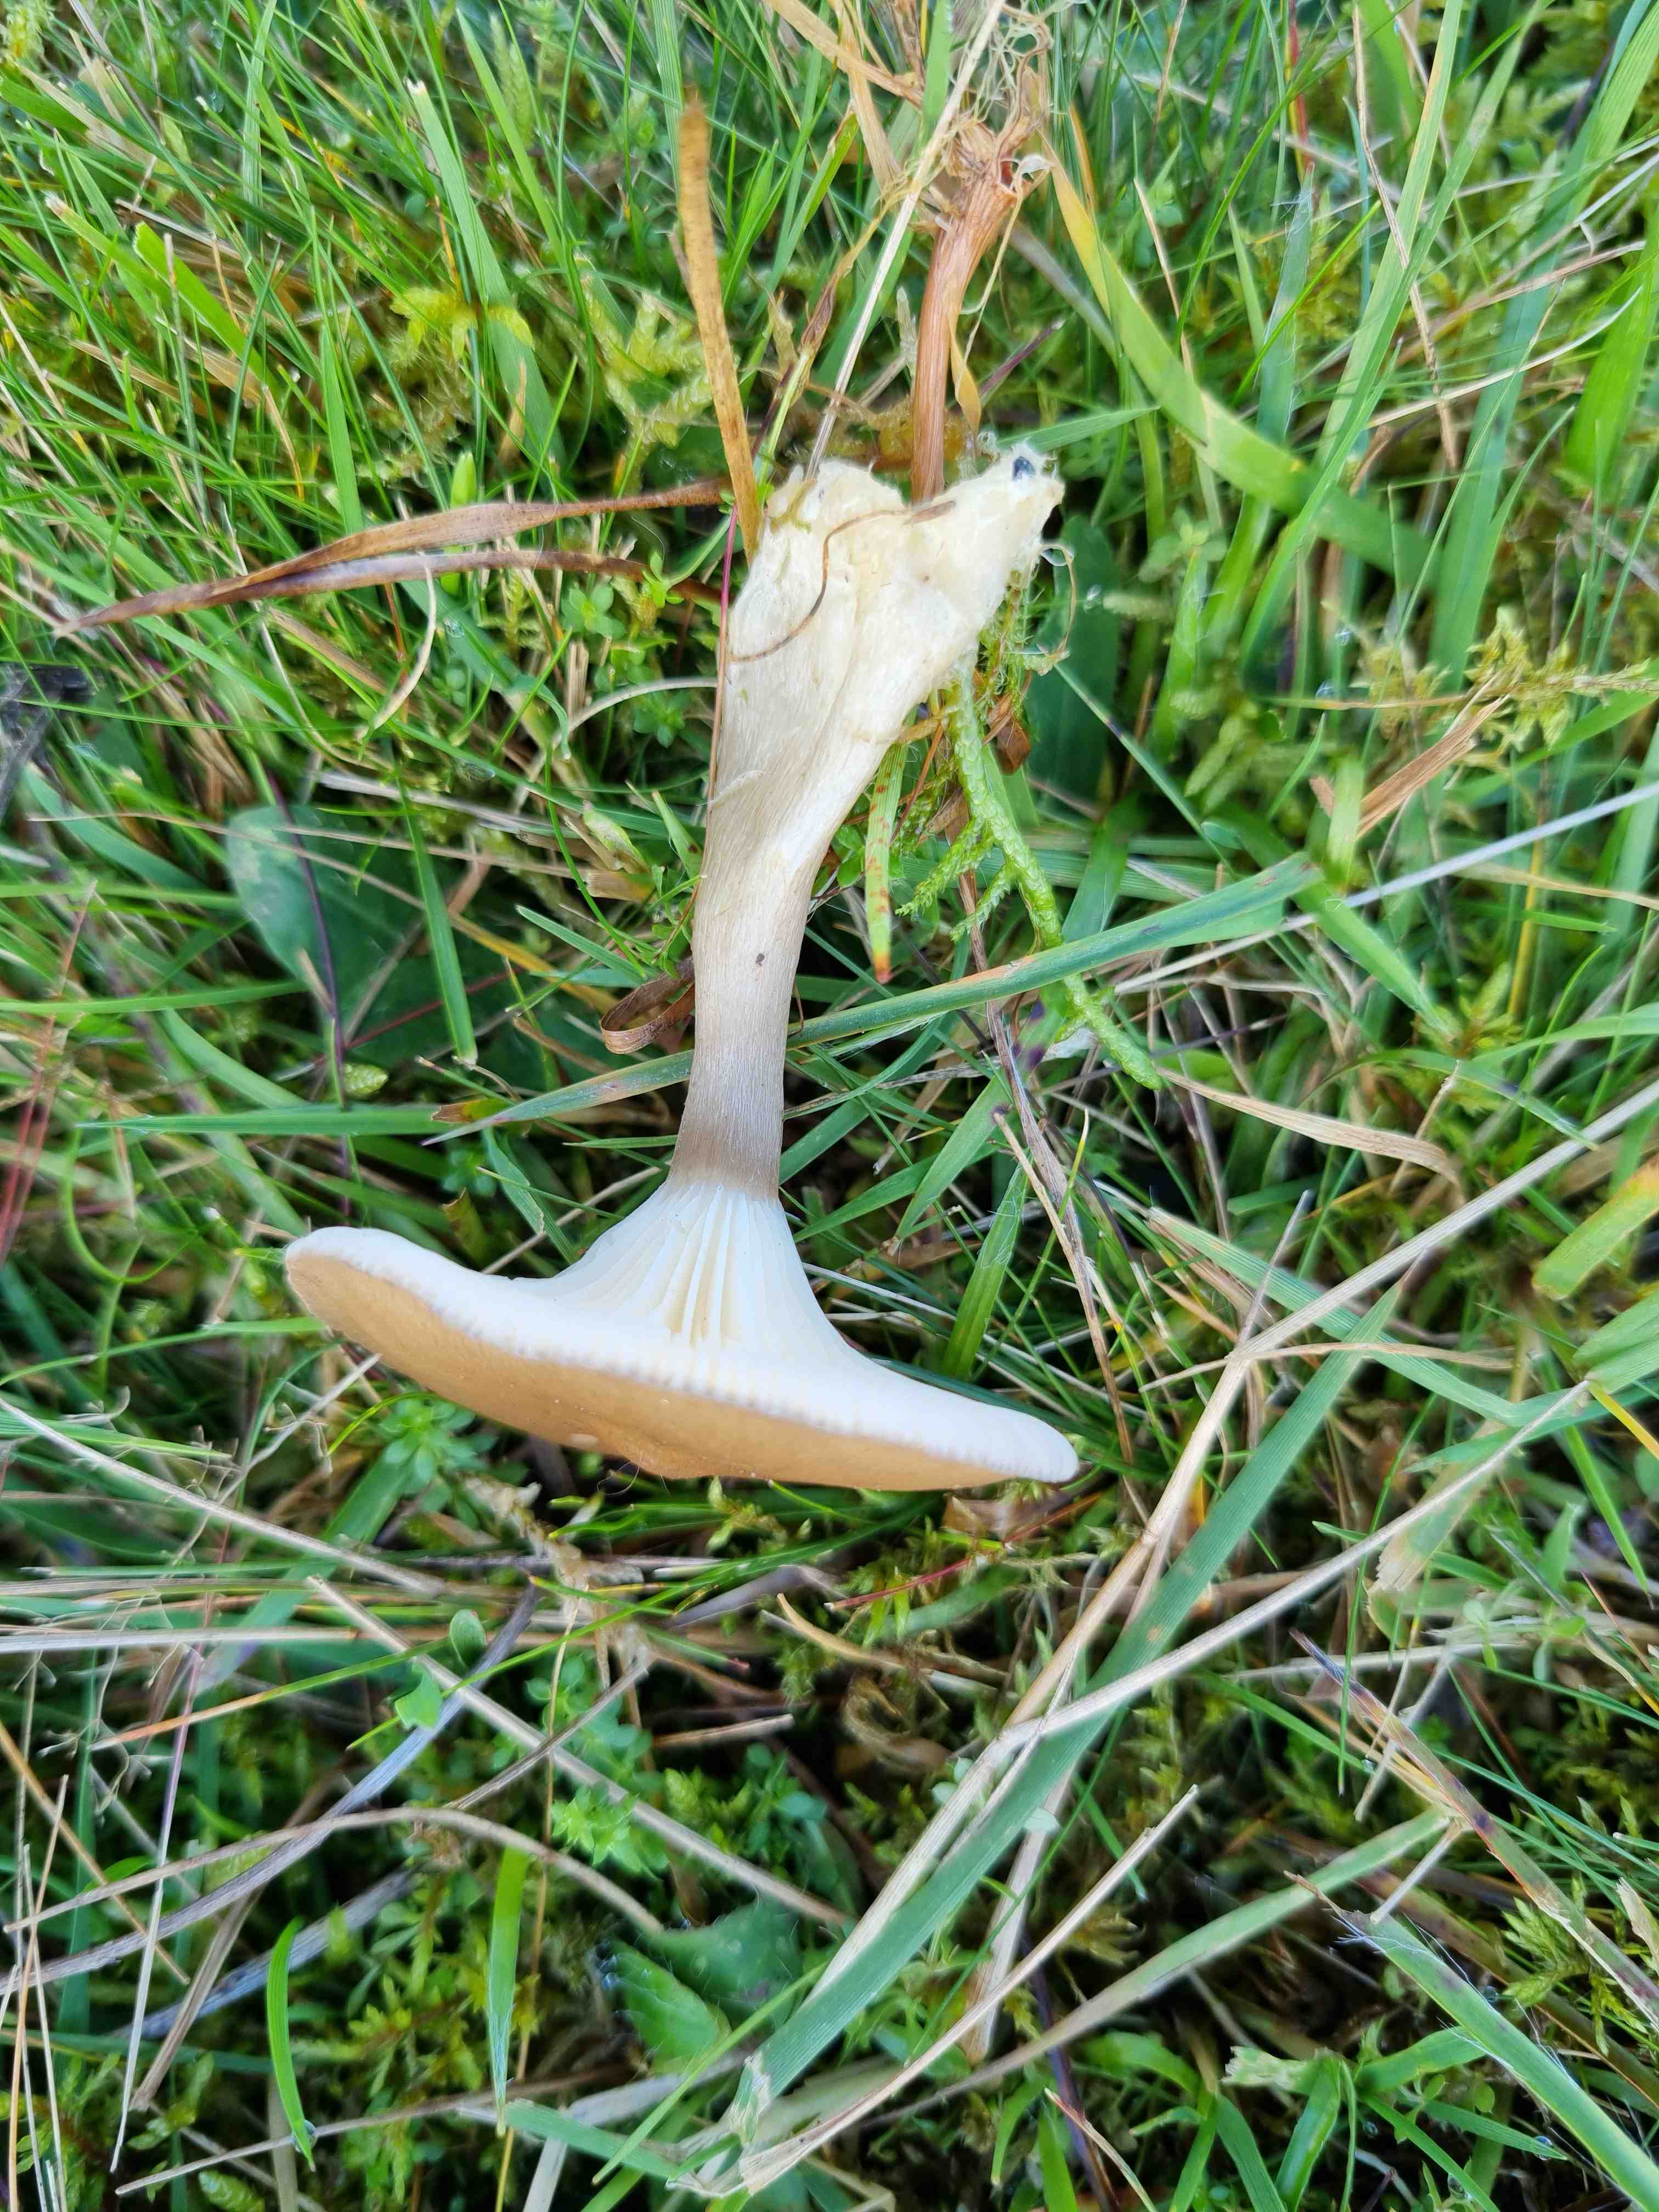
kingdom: Fungi
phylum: Basidiomycota
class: Agaricomycetes
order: Agaricales
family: Hygrophoraceae
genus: Ampulloclitocybe
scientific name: Ampulloclitocybe clavipes
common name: køllefod
